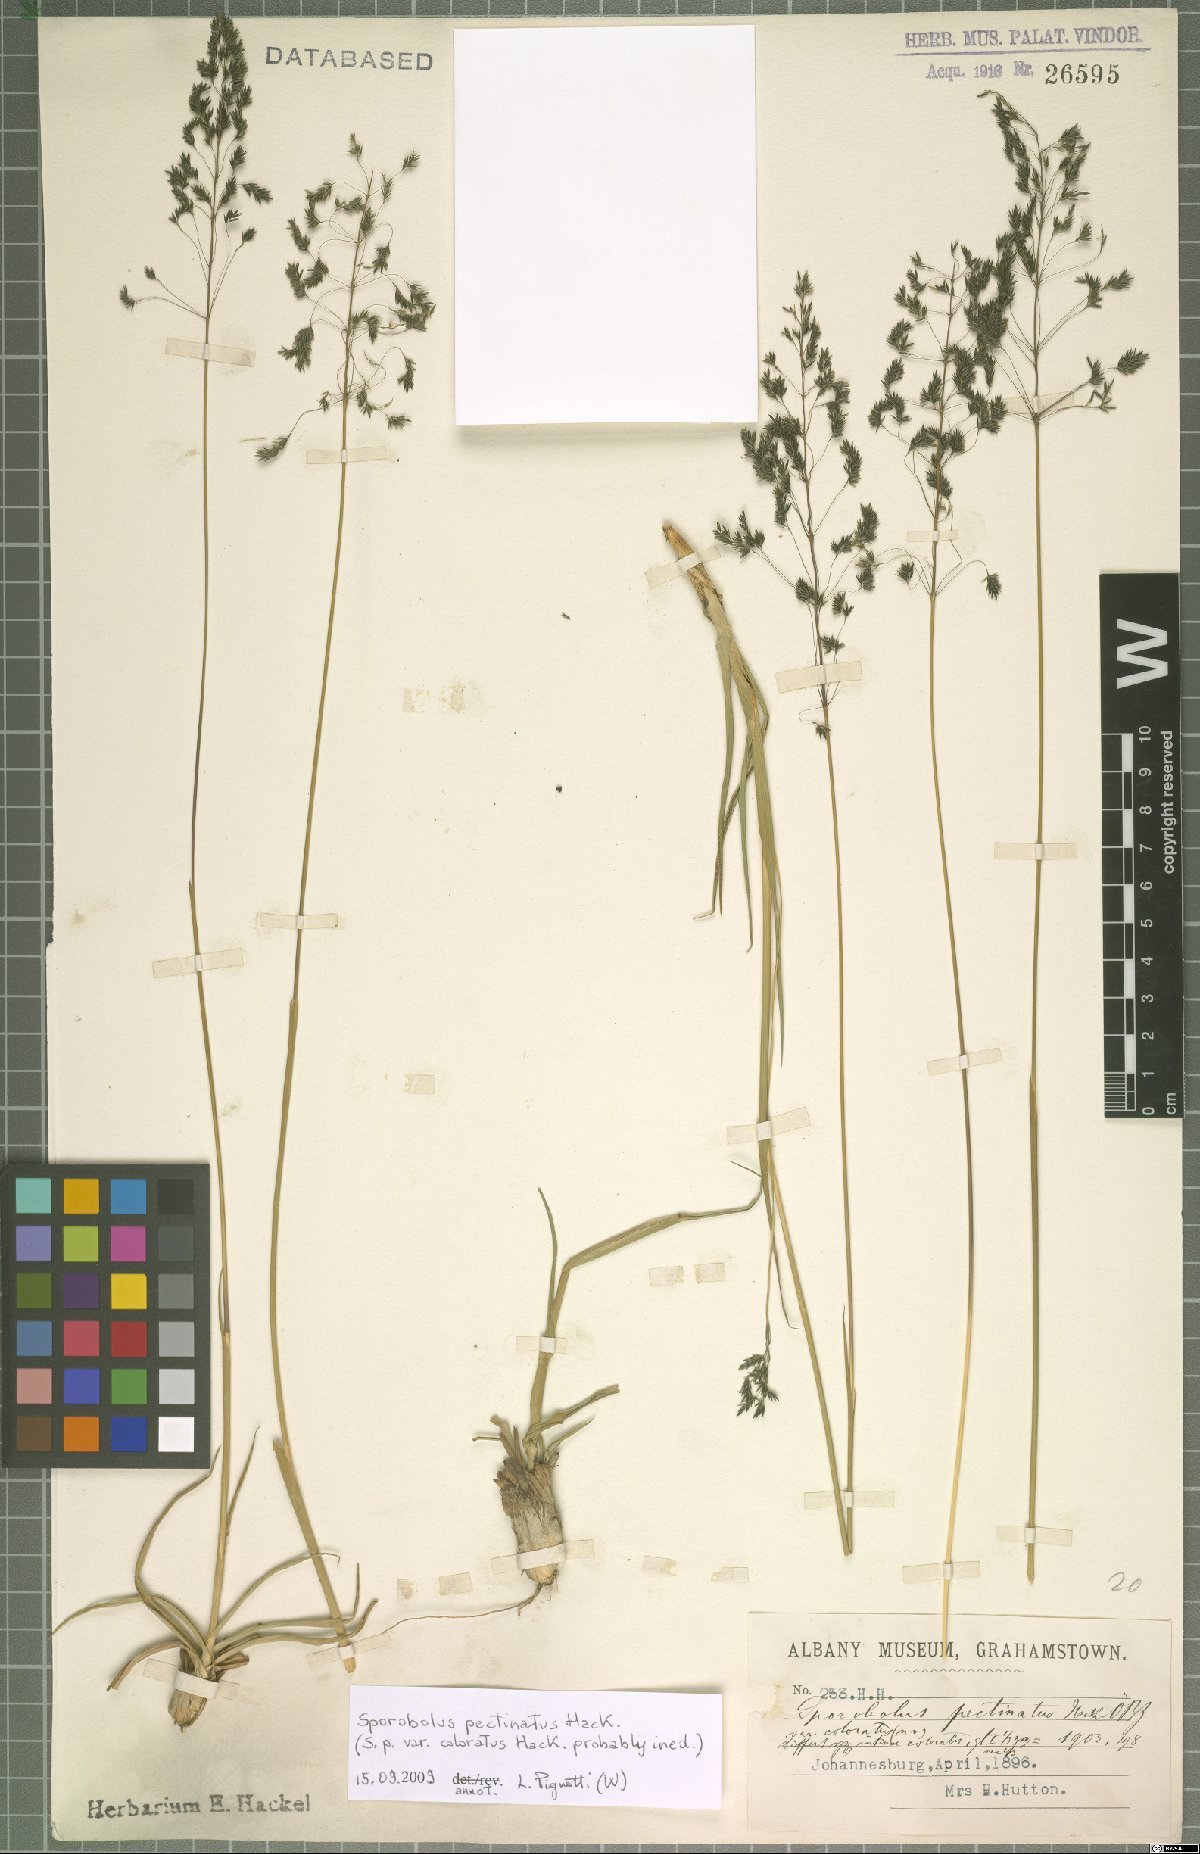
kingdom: Plantae
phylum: Tracheophyta
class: Liliopsida
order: Poales
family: Poaceae
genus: Sporobolus
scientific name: Sporobolus pectinatus
